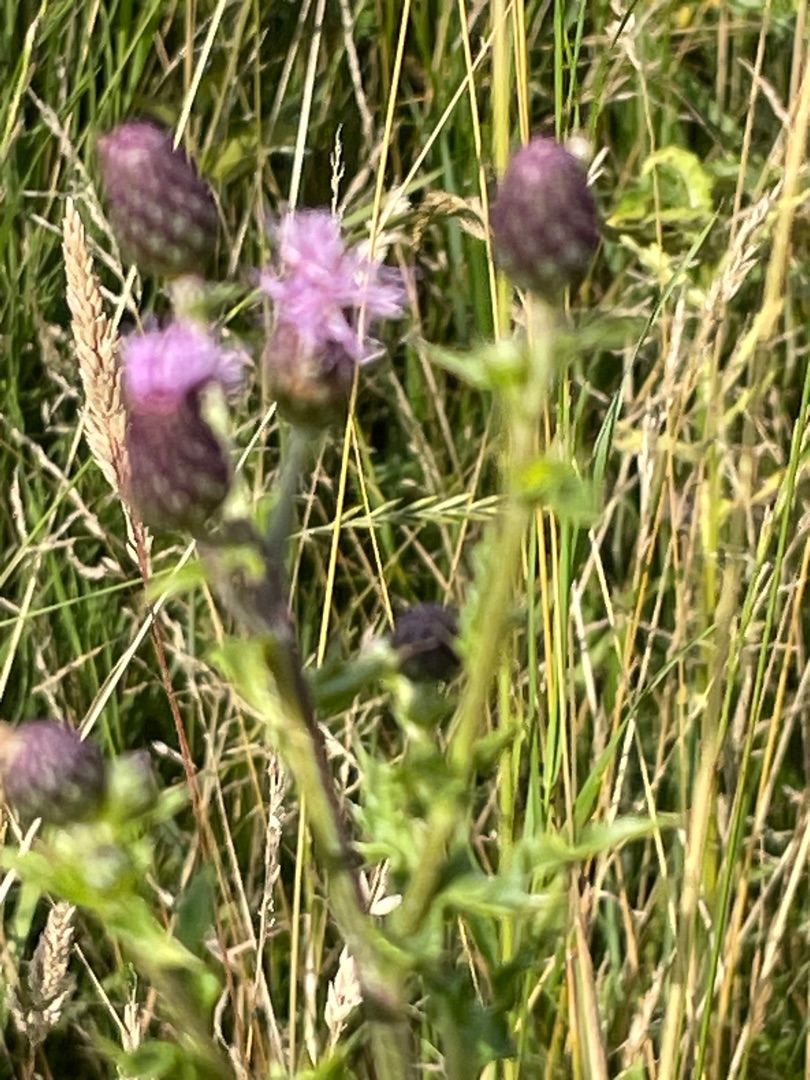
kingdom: Plantae
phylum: Tracheophyta
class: Magnoliopsida
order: Asterales
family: Asteraceae
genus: Cirsium
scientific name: Cirsium arvense
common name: Ager-tidsel
